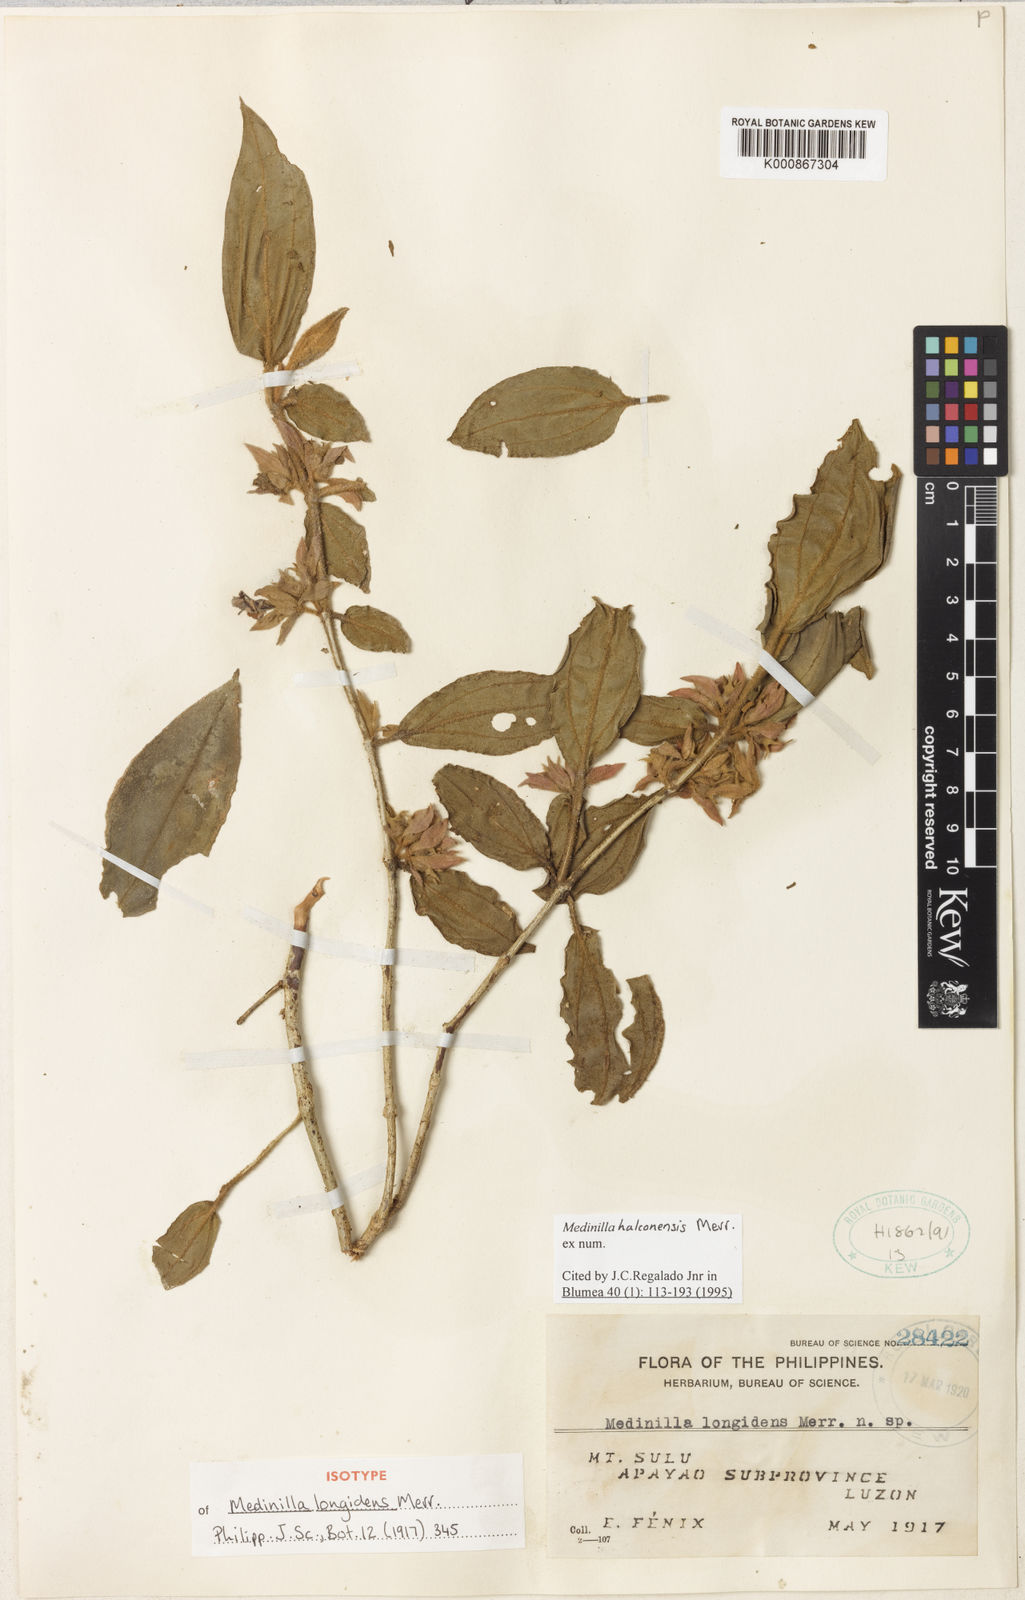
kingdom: Plantae
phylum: Tracheophyta
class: Magnoliopsida
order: Myrtales
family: Melastomataceae
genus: Medinilla
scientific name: Medinilla halconensis
